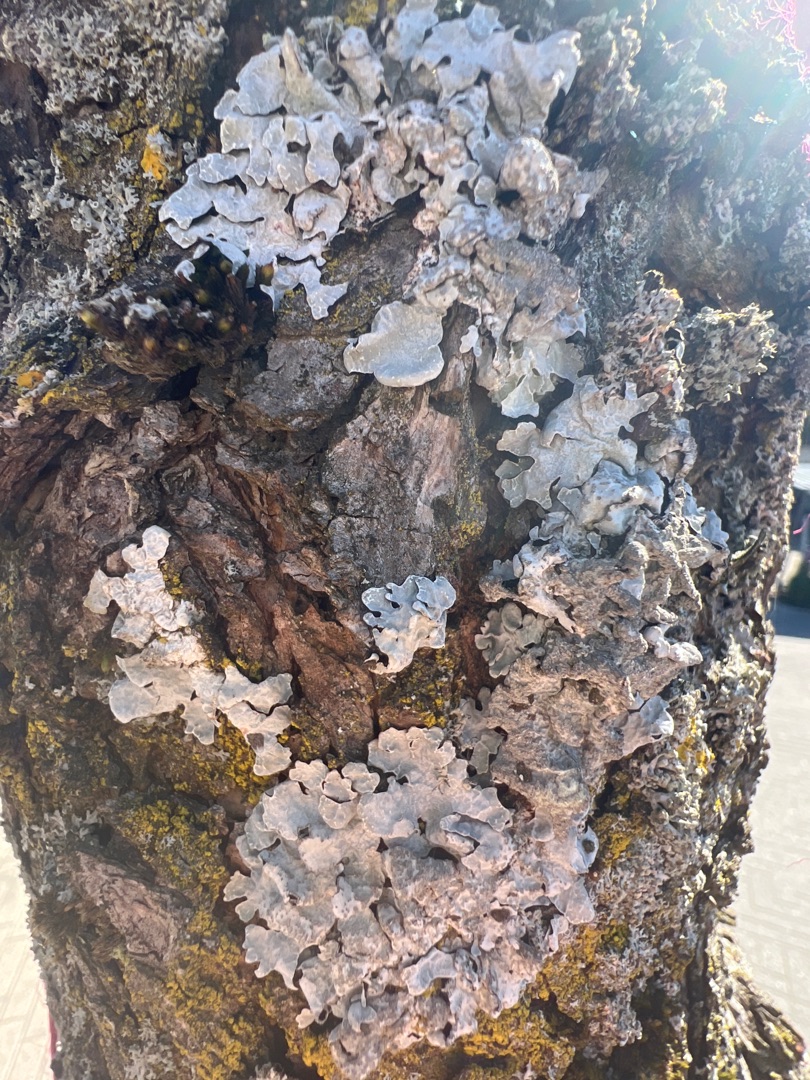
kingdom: Fungi
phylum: Ascomycota
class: Lecanoromycetes
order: Lecanorales
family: Parmeliaceae
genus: Parmelia
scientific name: Parmelia sulcata
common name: Rynket skållav
